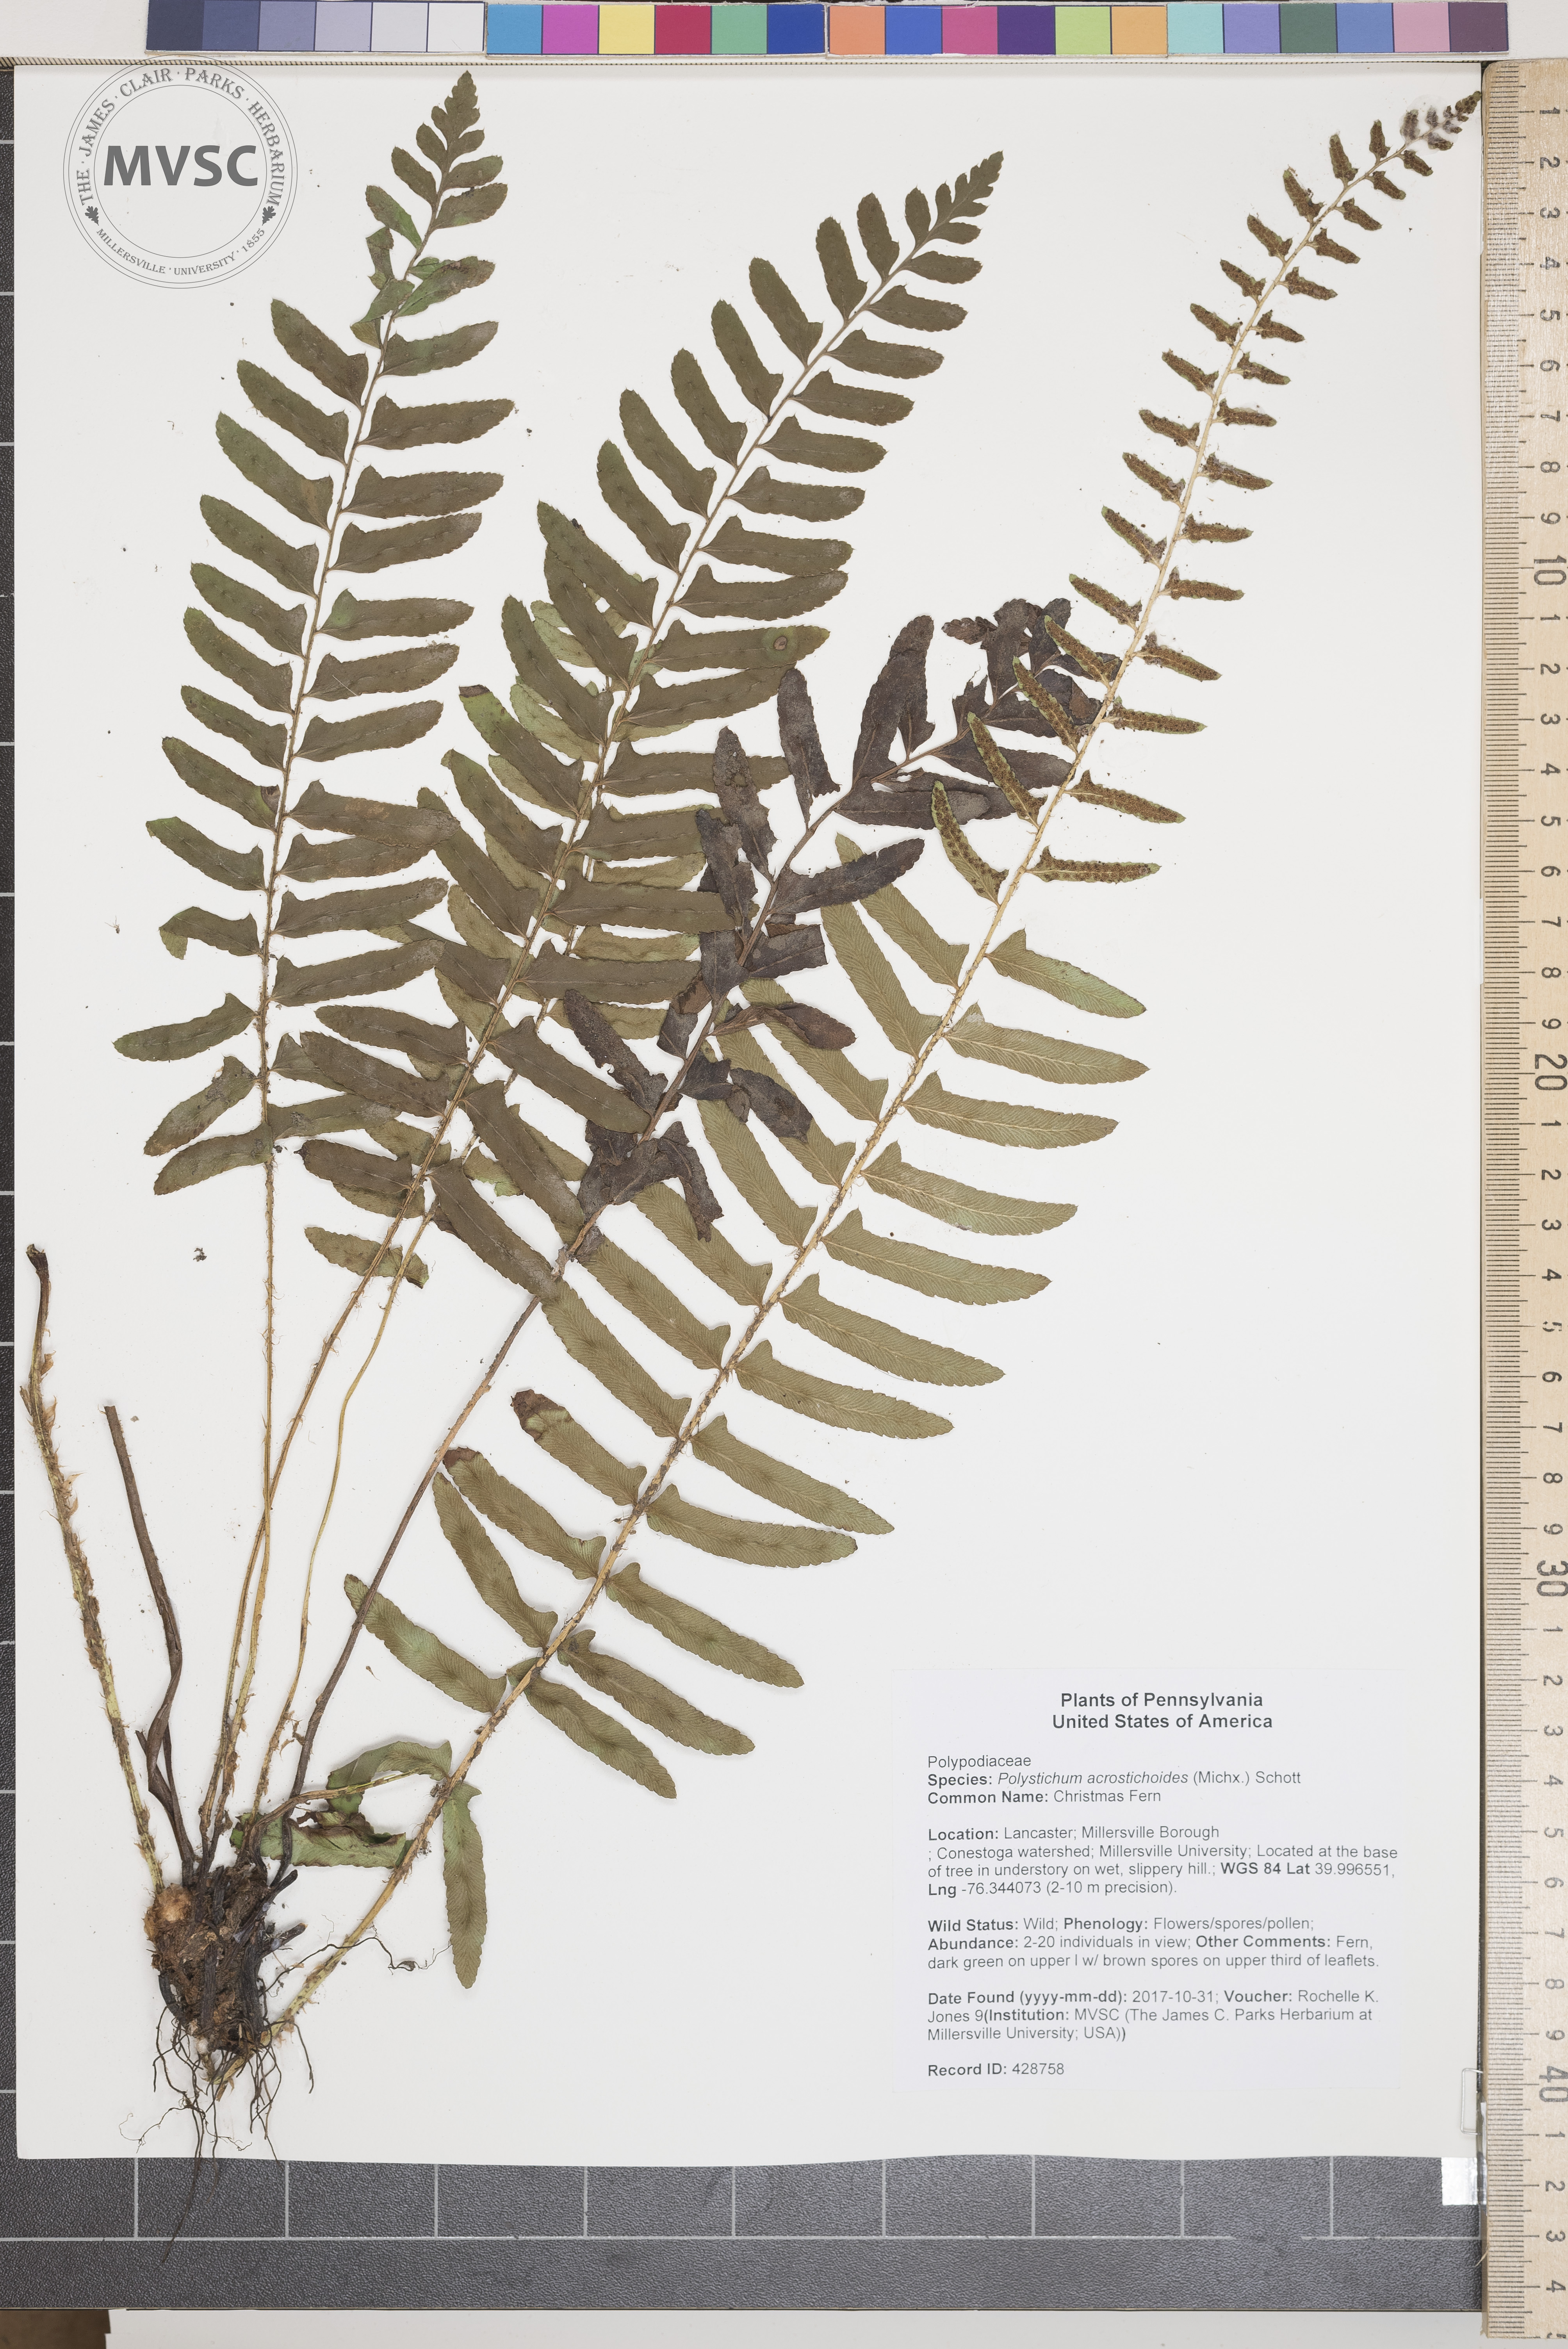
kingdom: Plantae
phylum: Tracheophyta
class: Polypodiopsida
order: Polypodiales
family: Dryopteridaceae
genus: Polystichum
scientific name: Polystichum acrostichoides
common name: Christmas Fern
